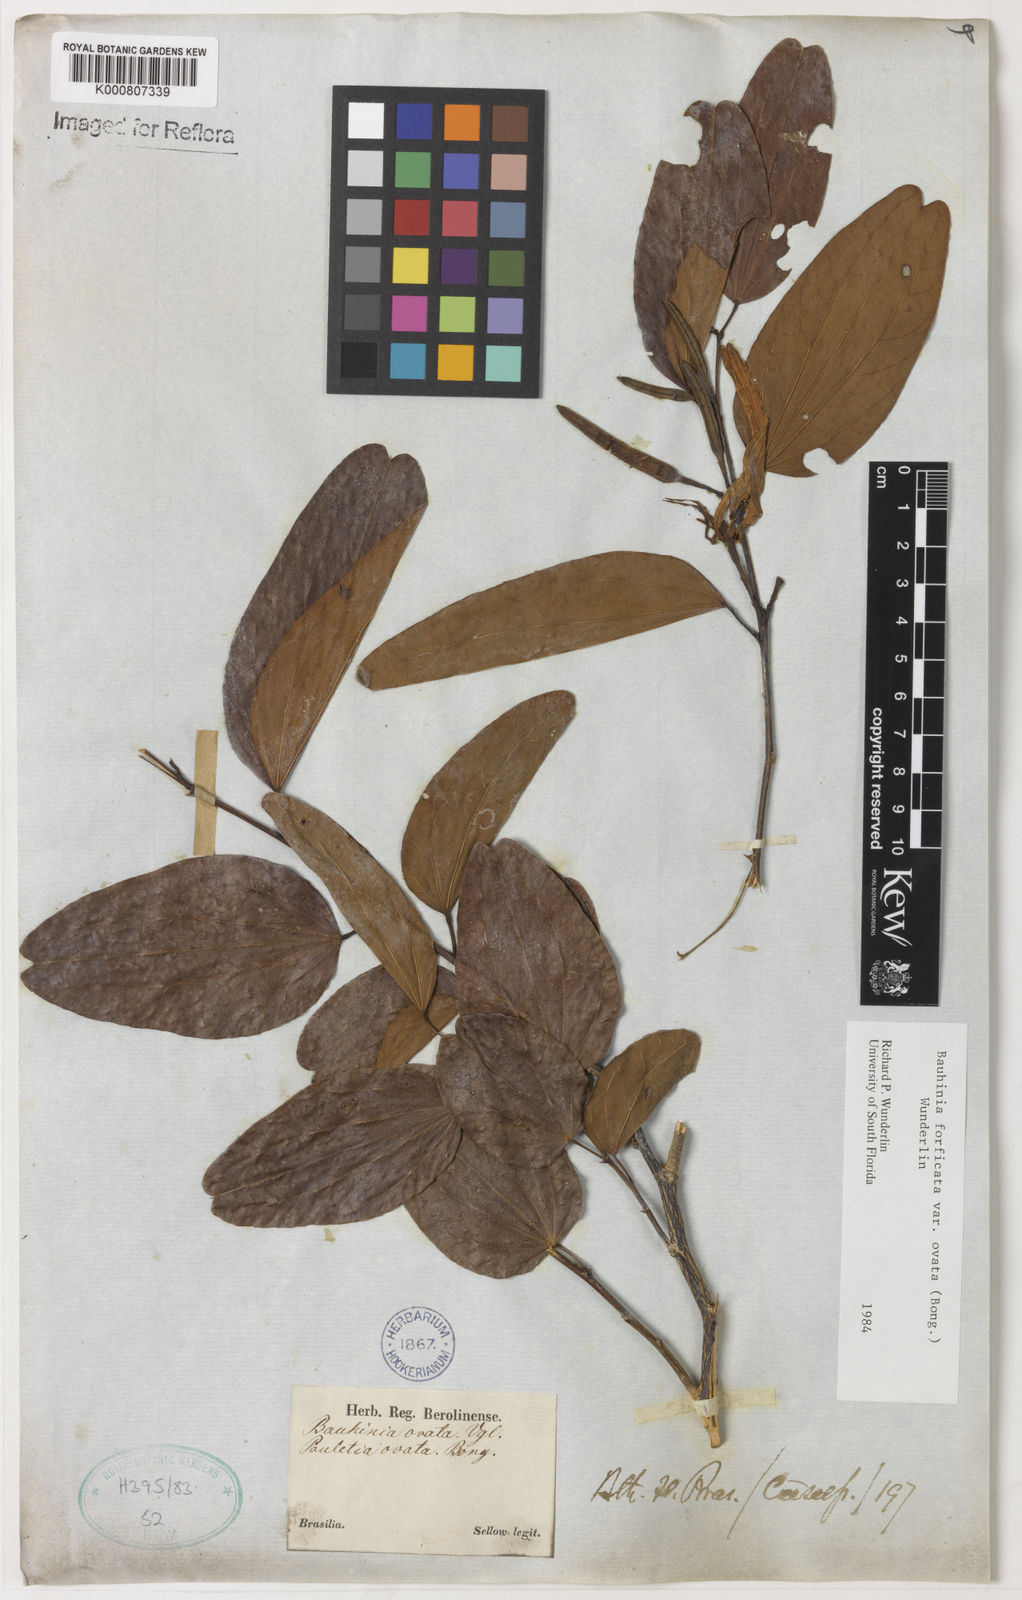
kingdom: Plantae
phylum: Tracheophyta
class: Magnoliopsida
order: Fabales
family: Fabaceae
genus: Bauhinia
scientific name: Bauhinia forficata
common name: Orchid tree
